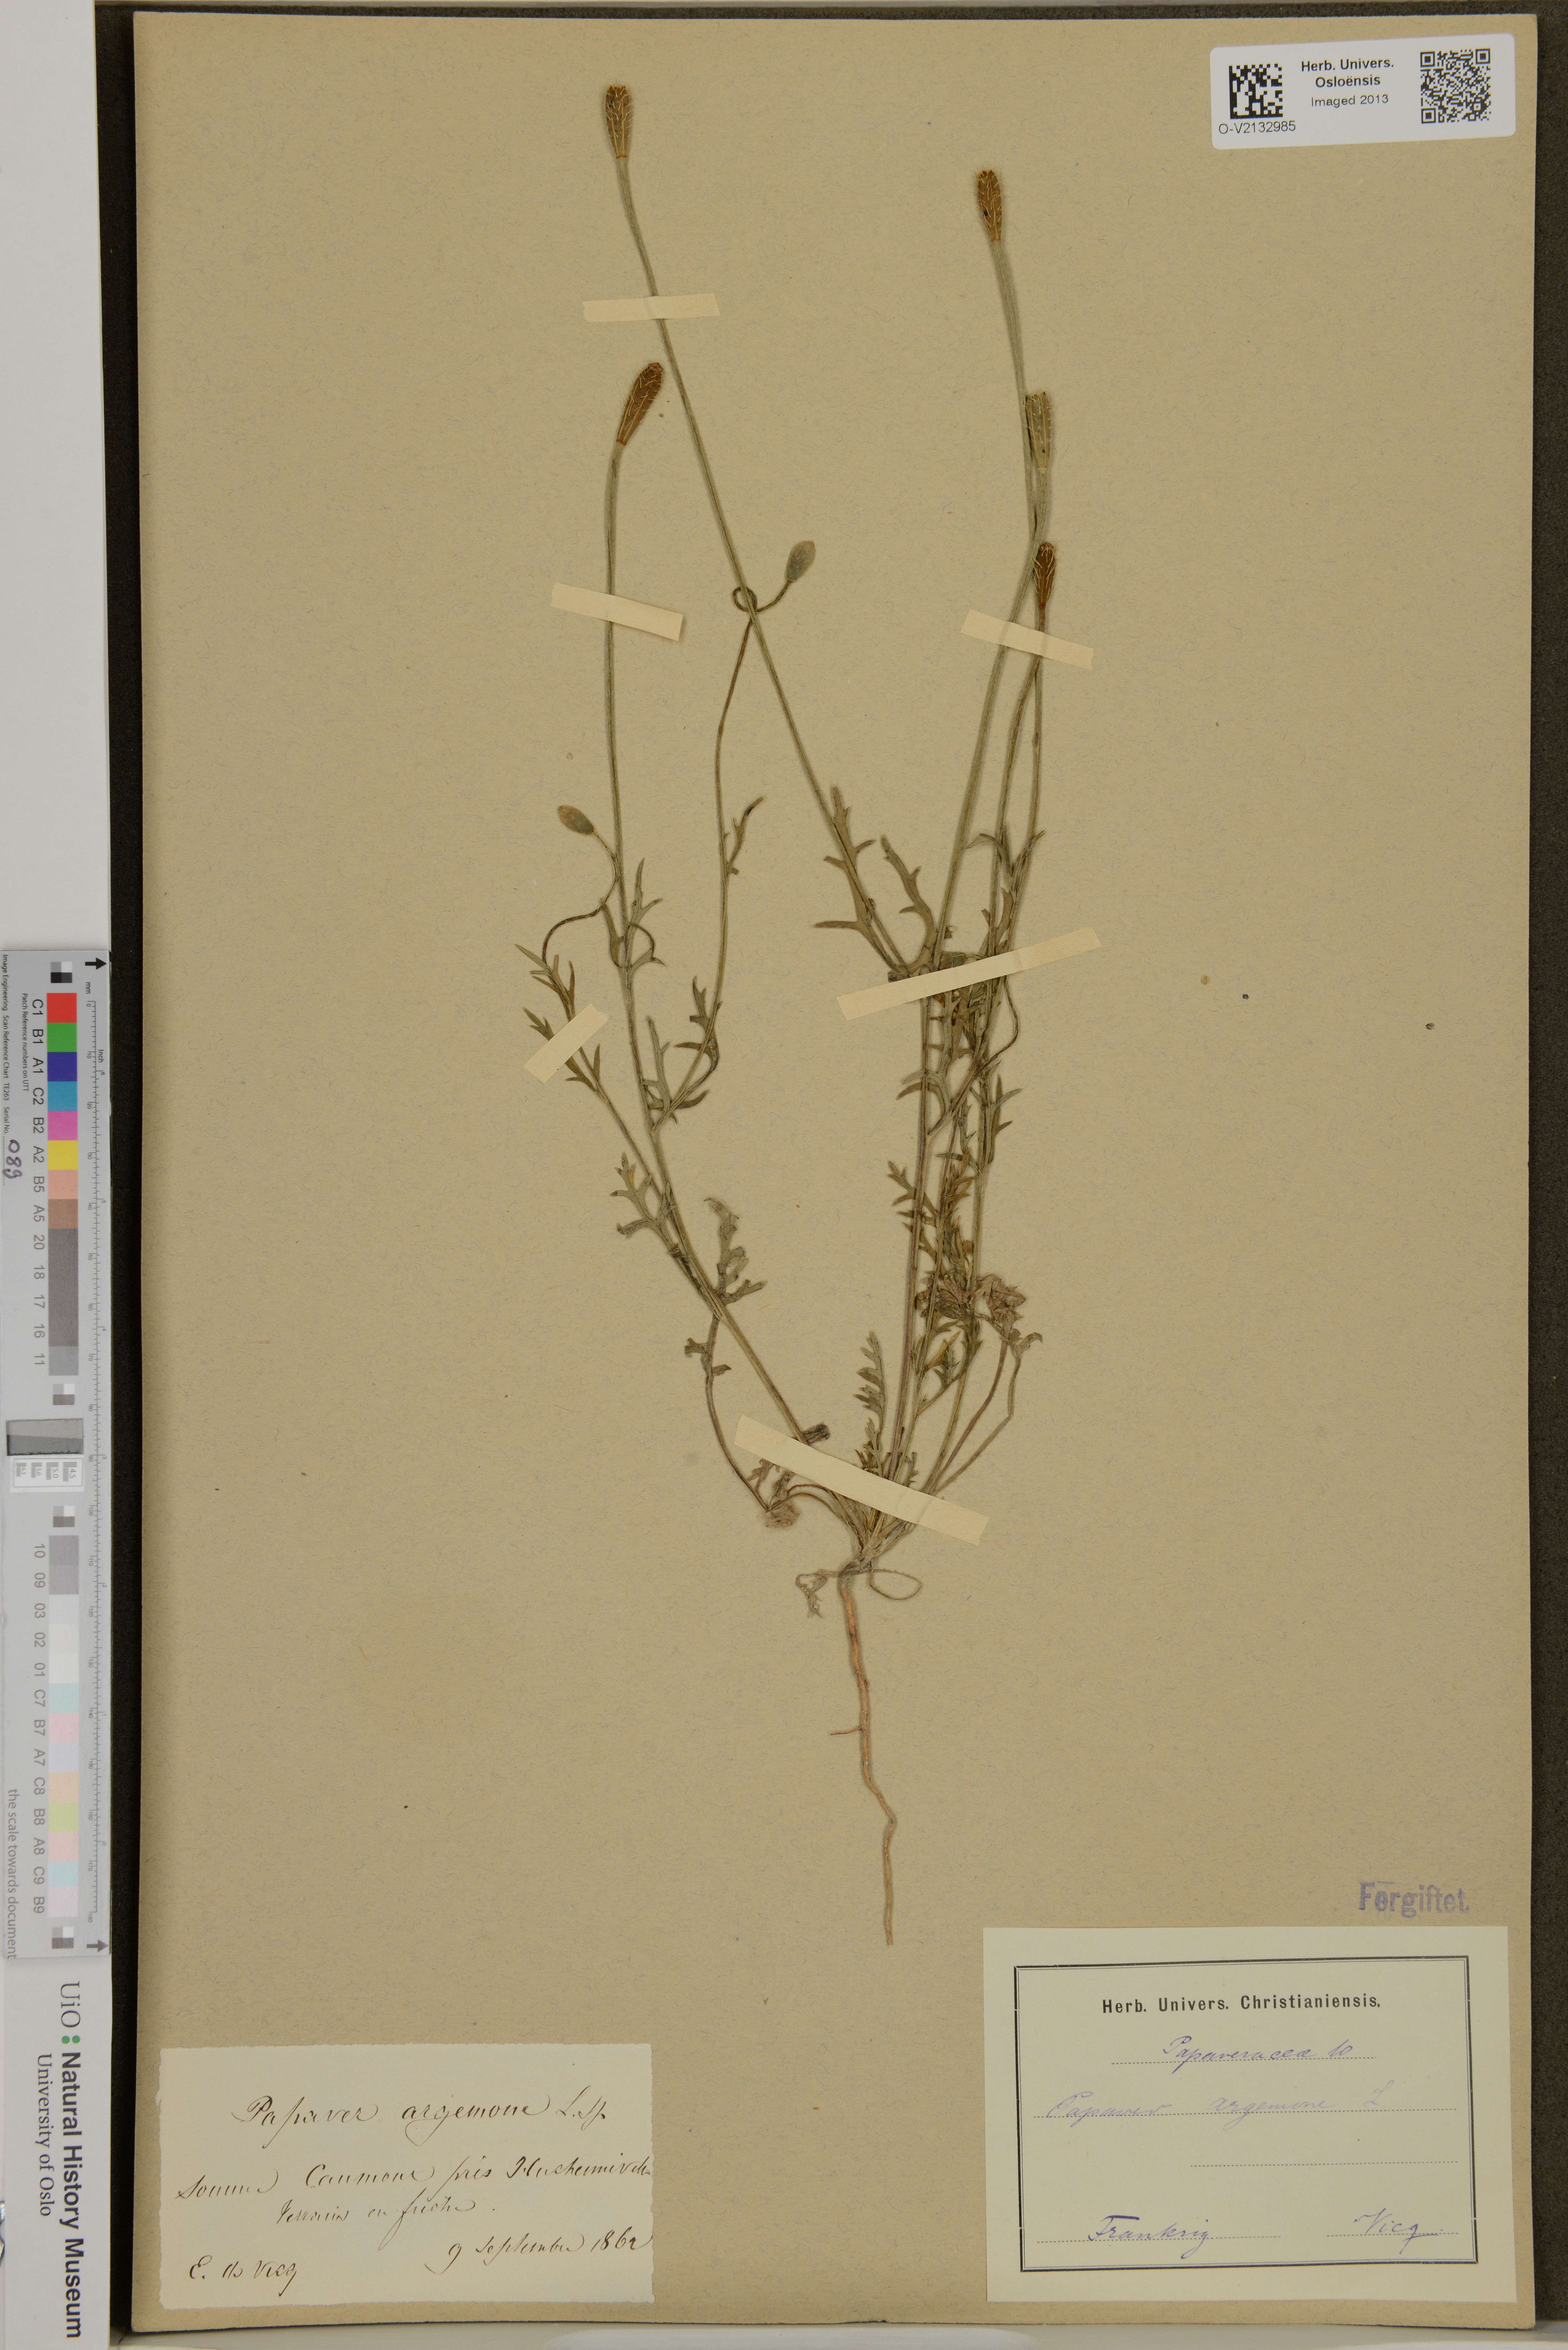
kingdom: Plantae
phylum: Tracheophyta
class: Magnoliopsida
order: Ranunculales
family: Papaveraceae
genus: Roemeria
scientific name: Roemeria argemone
